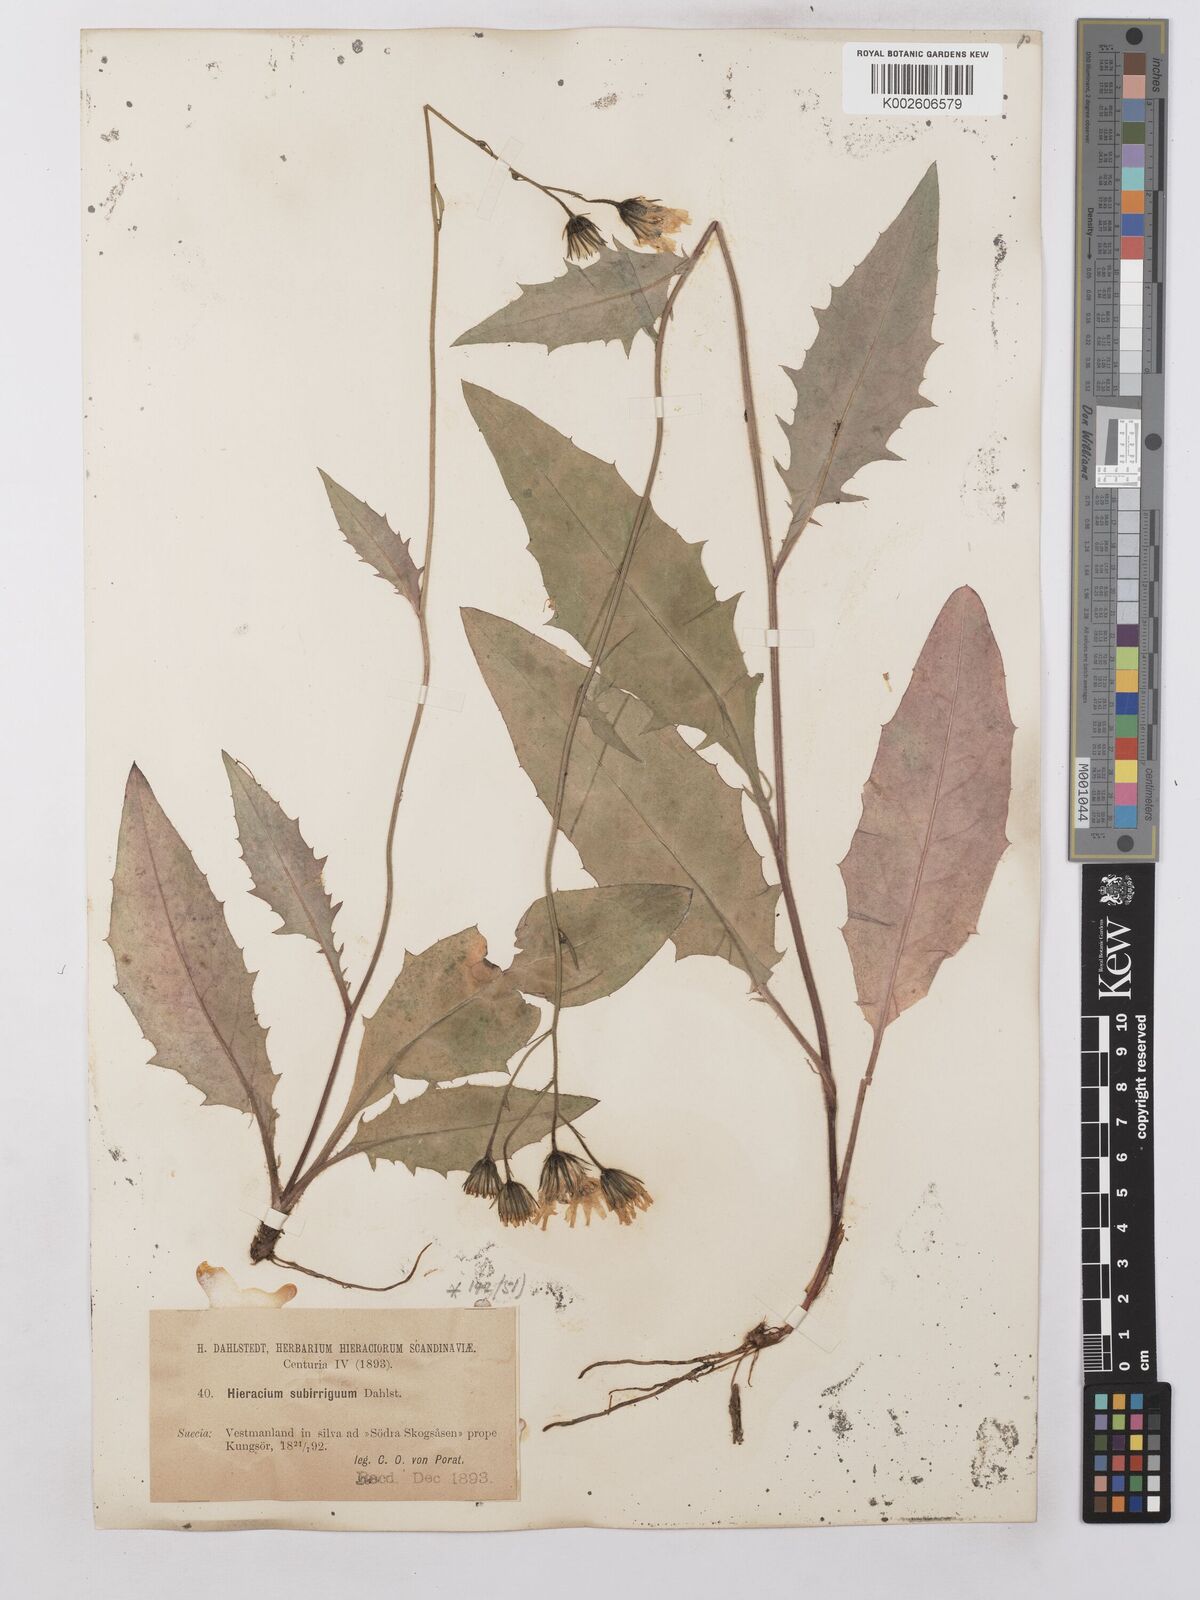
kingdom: Plantae
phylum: Tracheophyta
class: Magnoliopsida
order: Asterales
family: Asteraceae
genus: Hieracium
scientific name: Hieracium lachenalii
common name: Common hawkweed
